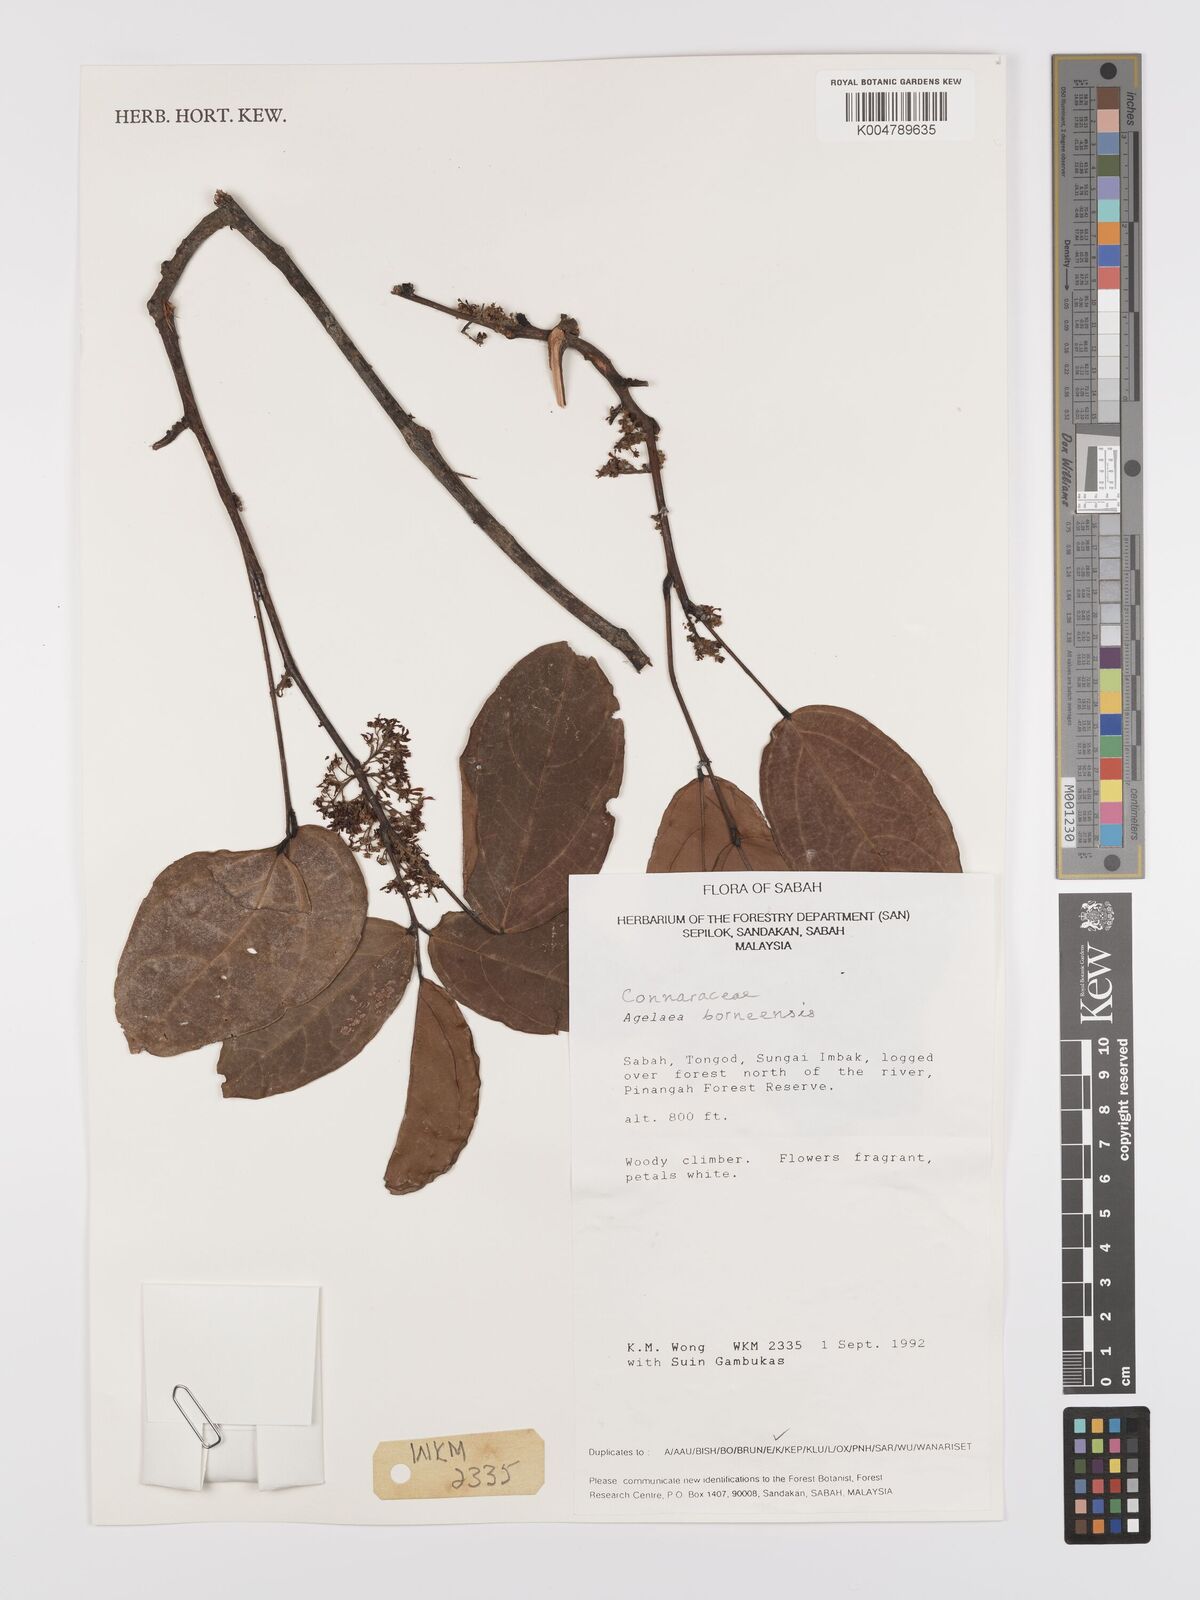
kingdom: Plantae
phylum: Tracheophyta
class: Magnoliopsida
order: Oxalidales
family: Connaraceae
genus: Agelaea
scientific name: Agelaea borneensis
